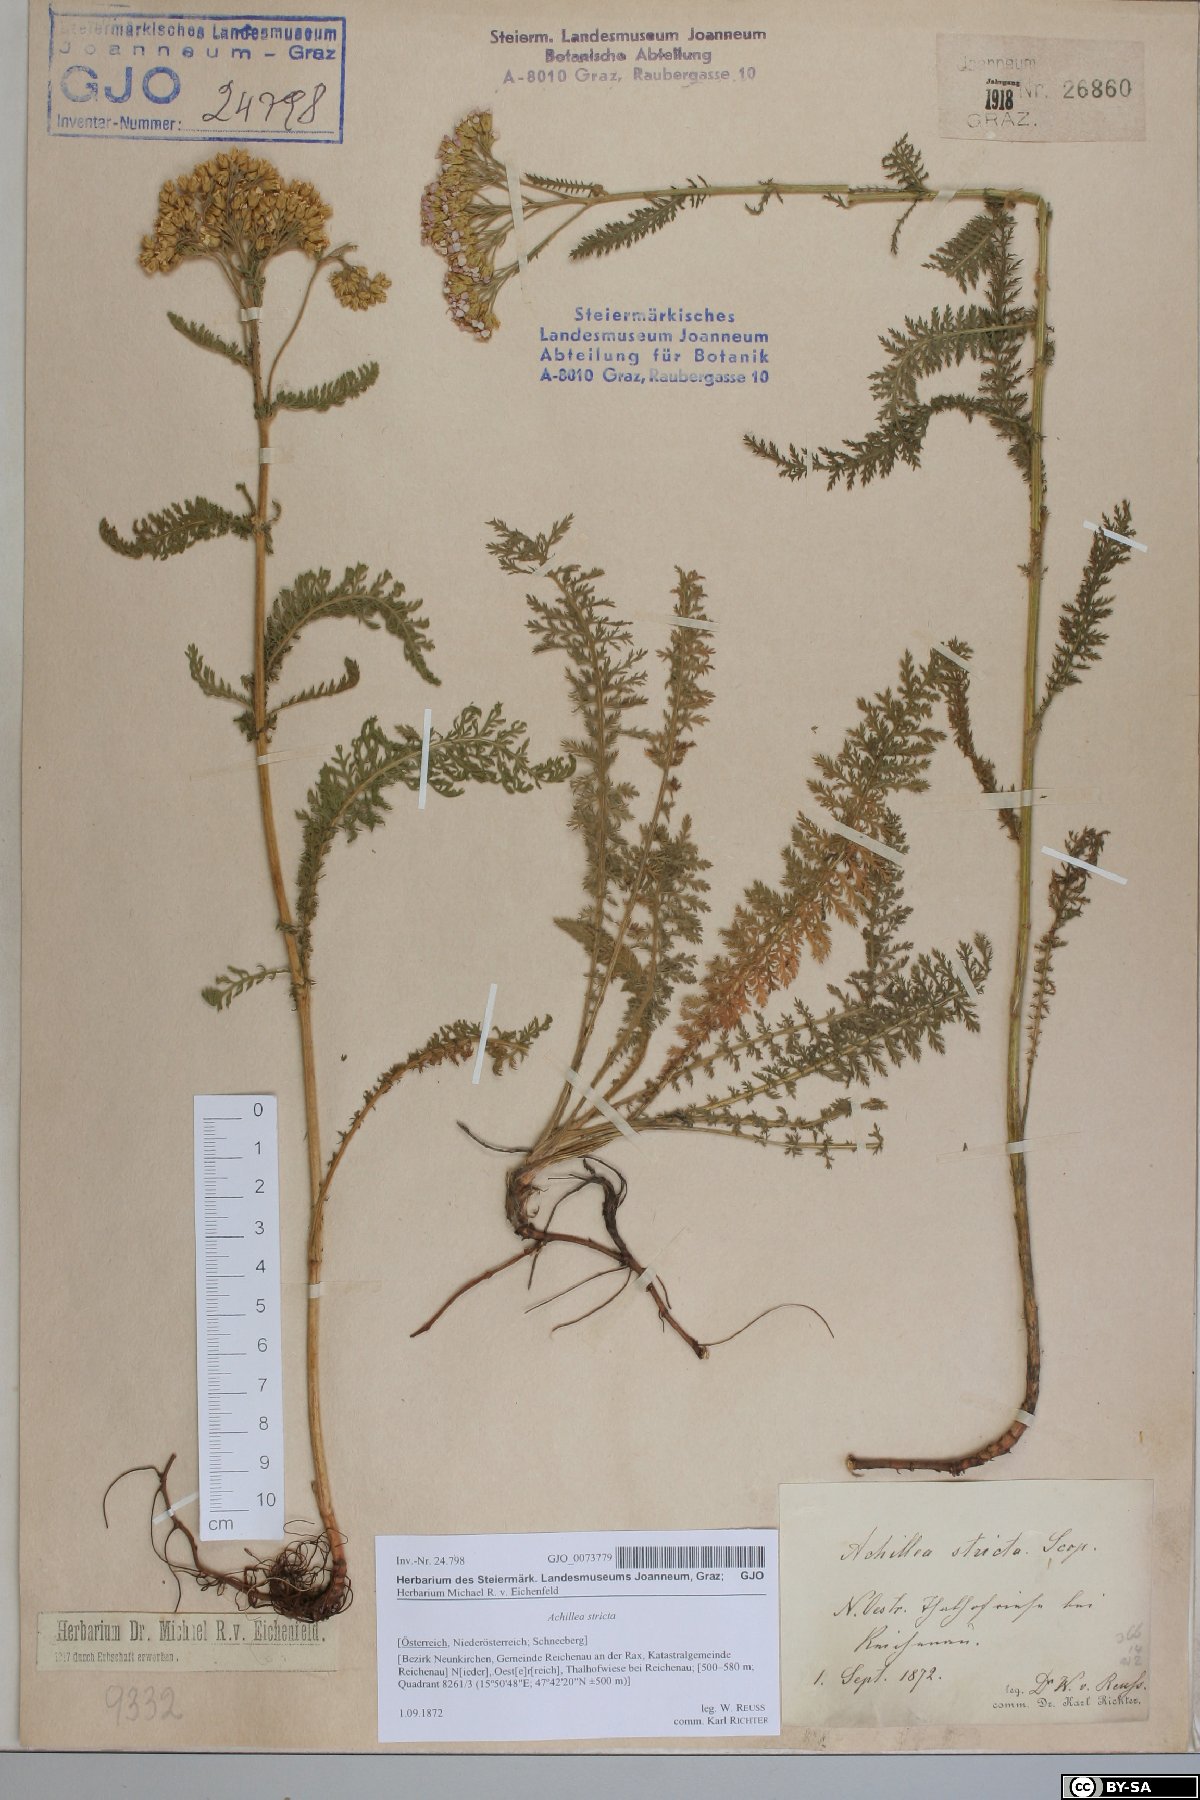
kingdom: Plantae
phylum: Tracheophyta
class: Magnoliopsida
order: Asterales
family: Asteraceae
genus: Achillea
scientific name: Achillea distans
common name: Tall yarrow
